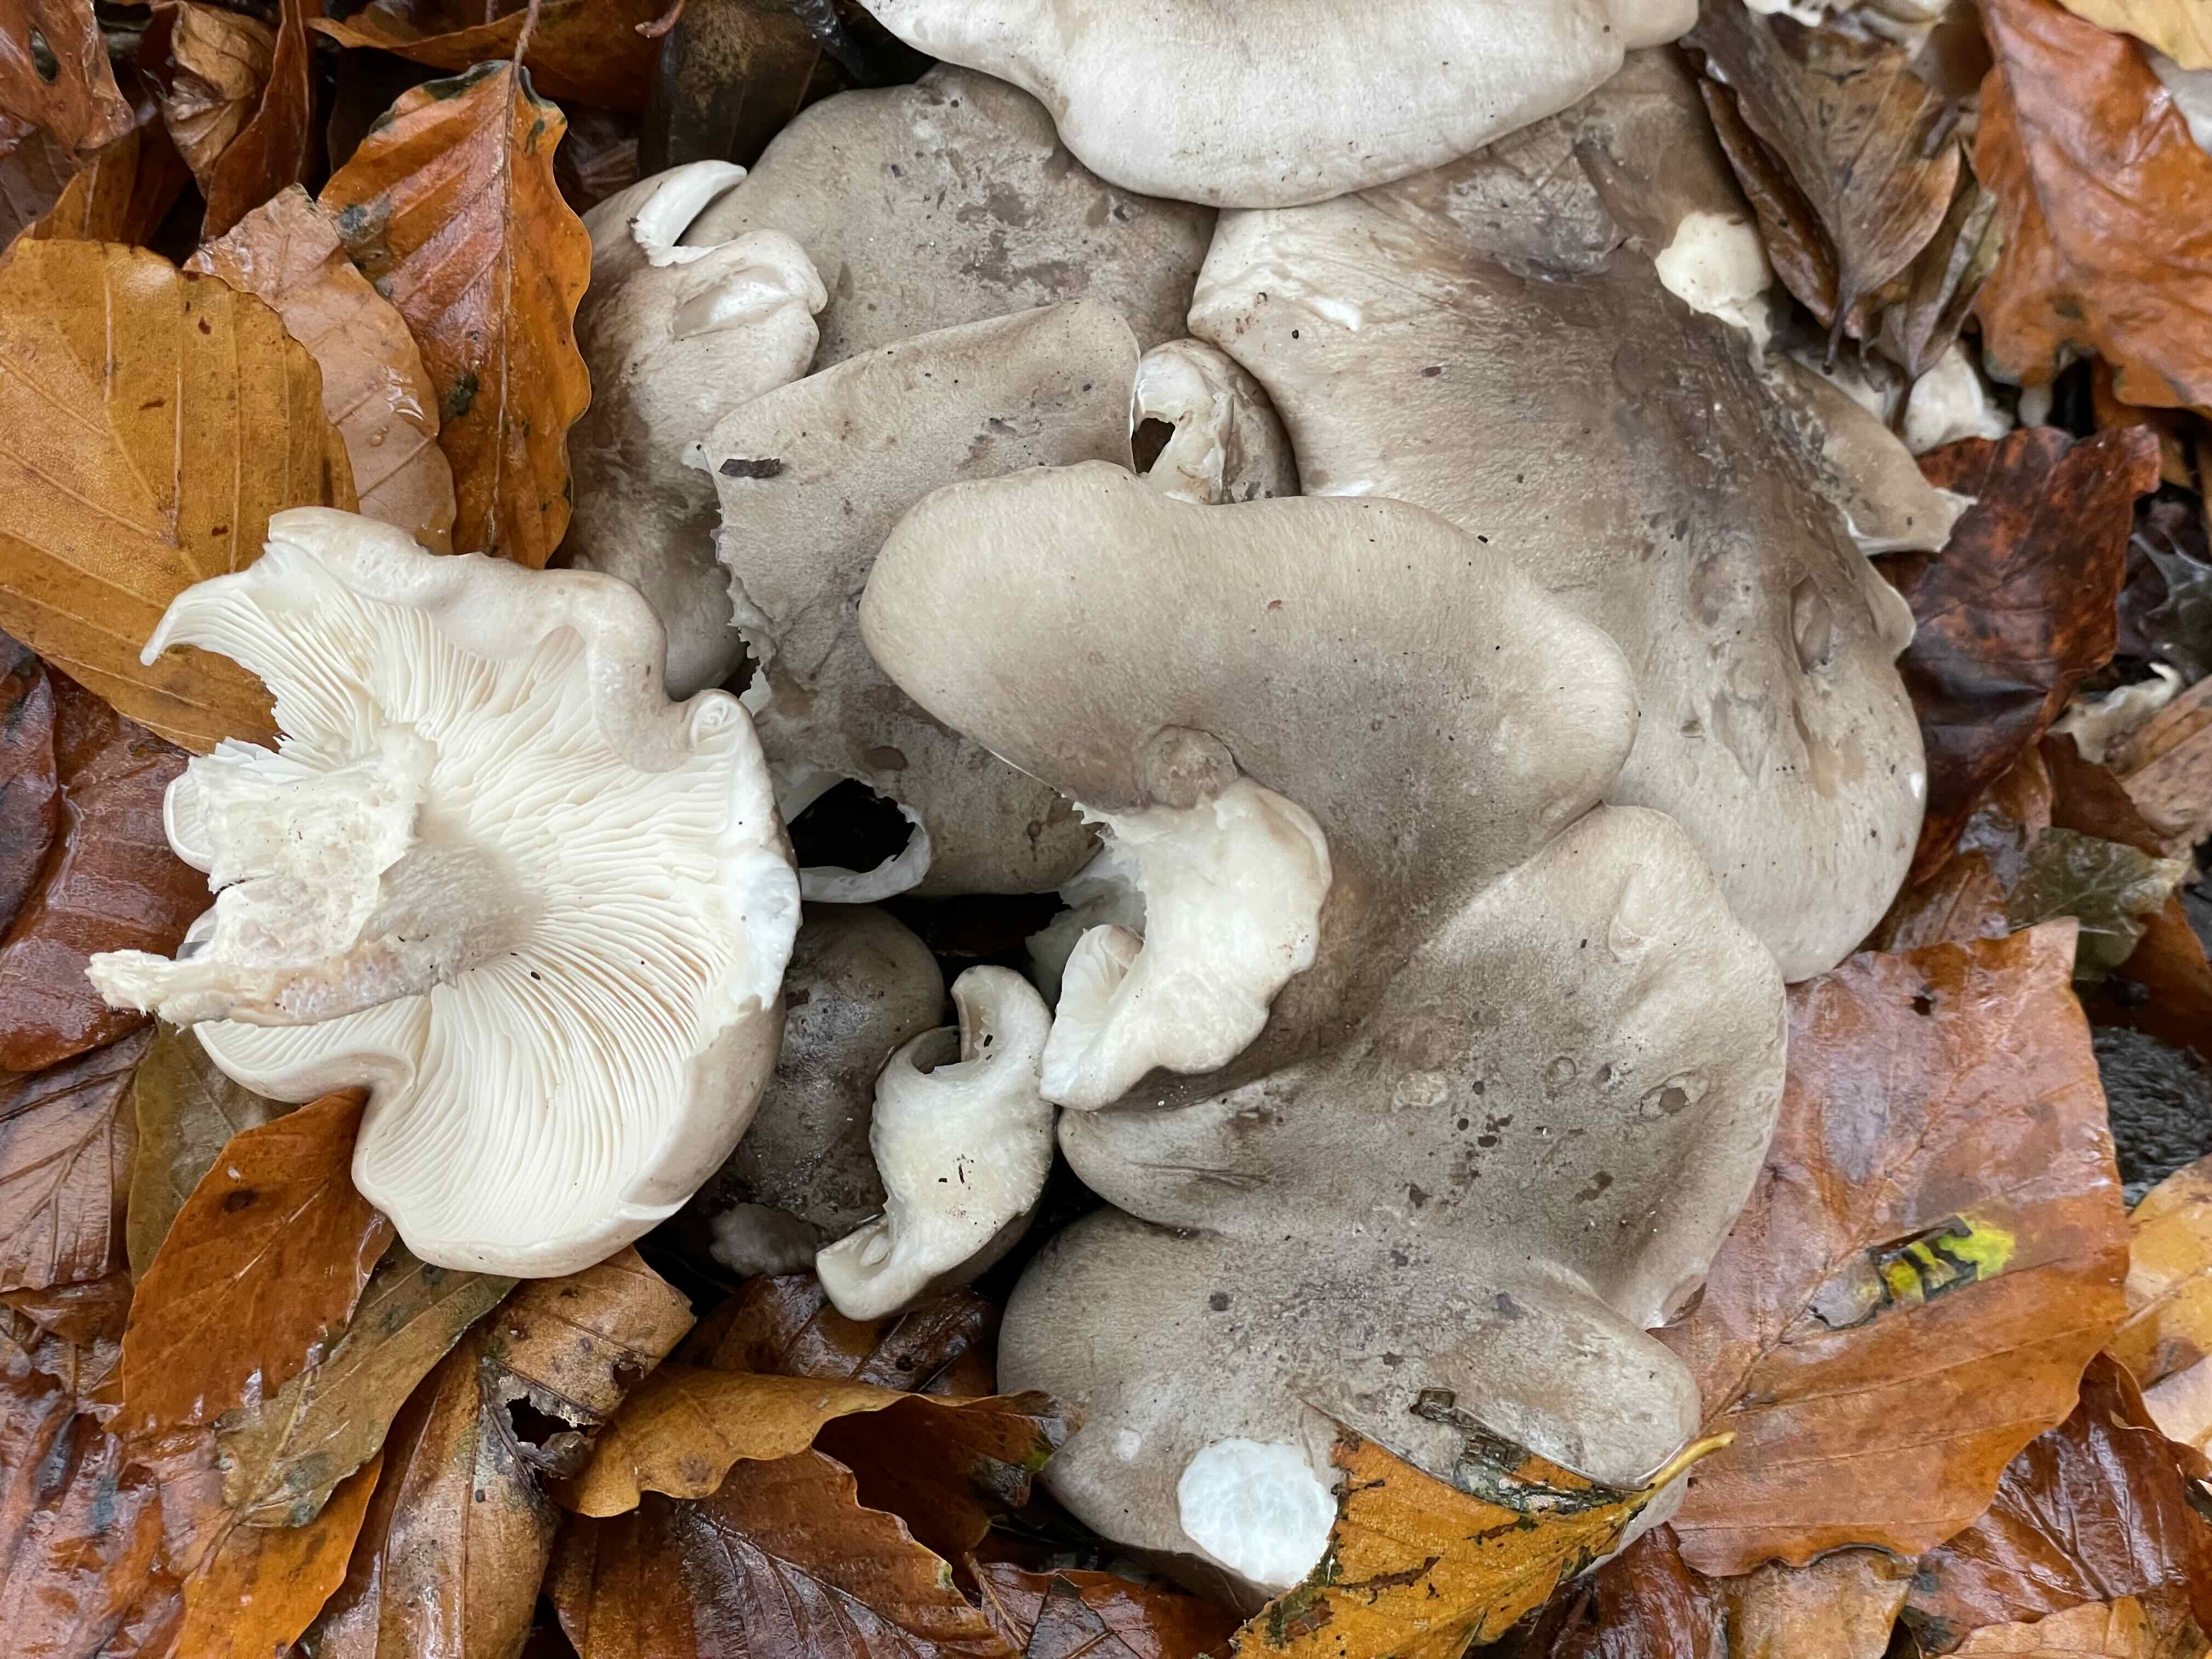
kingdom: Fungi
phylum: Basidiomycota
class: Agaricomycetes
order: Agaricales
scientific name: Agaricales
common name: champignonordenen
